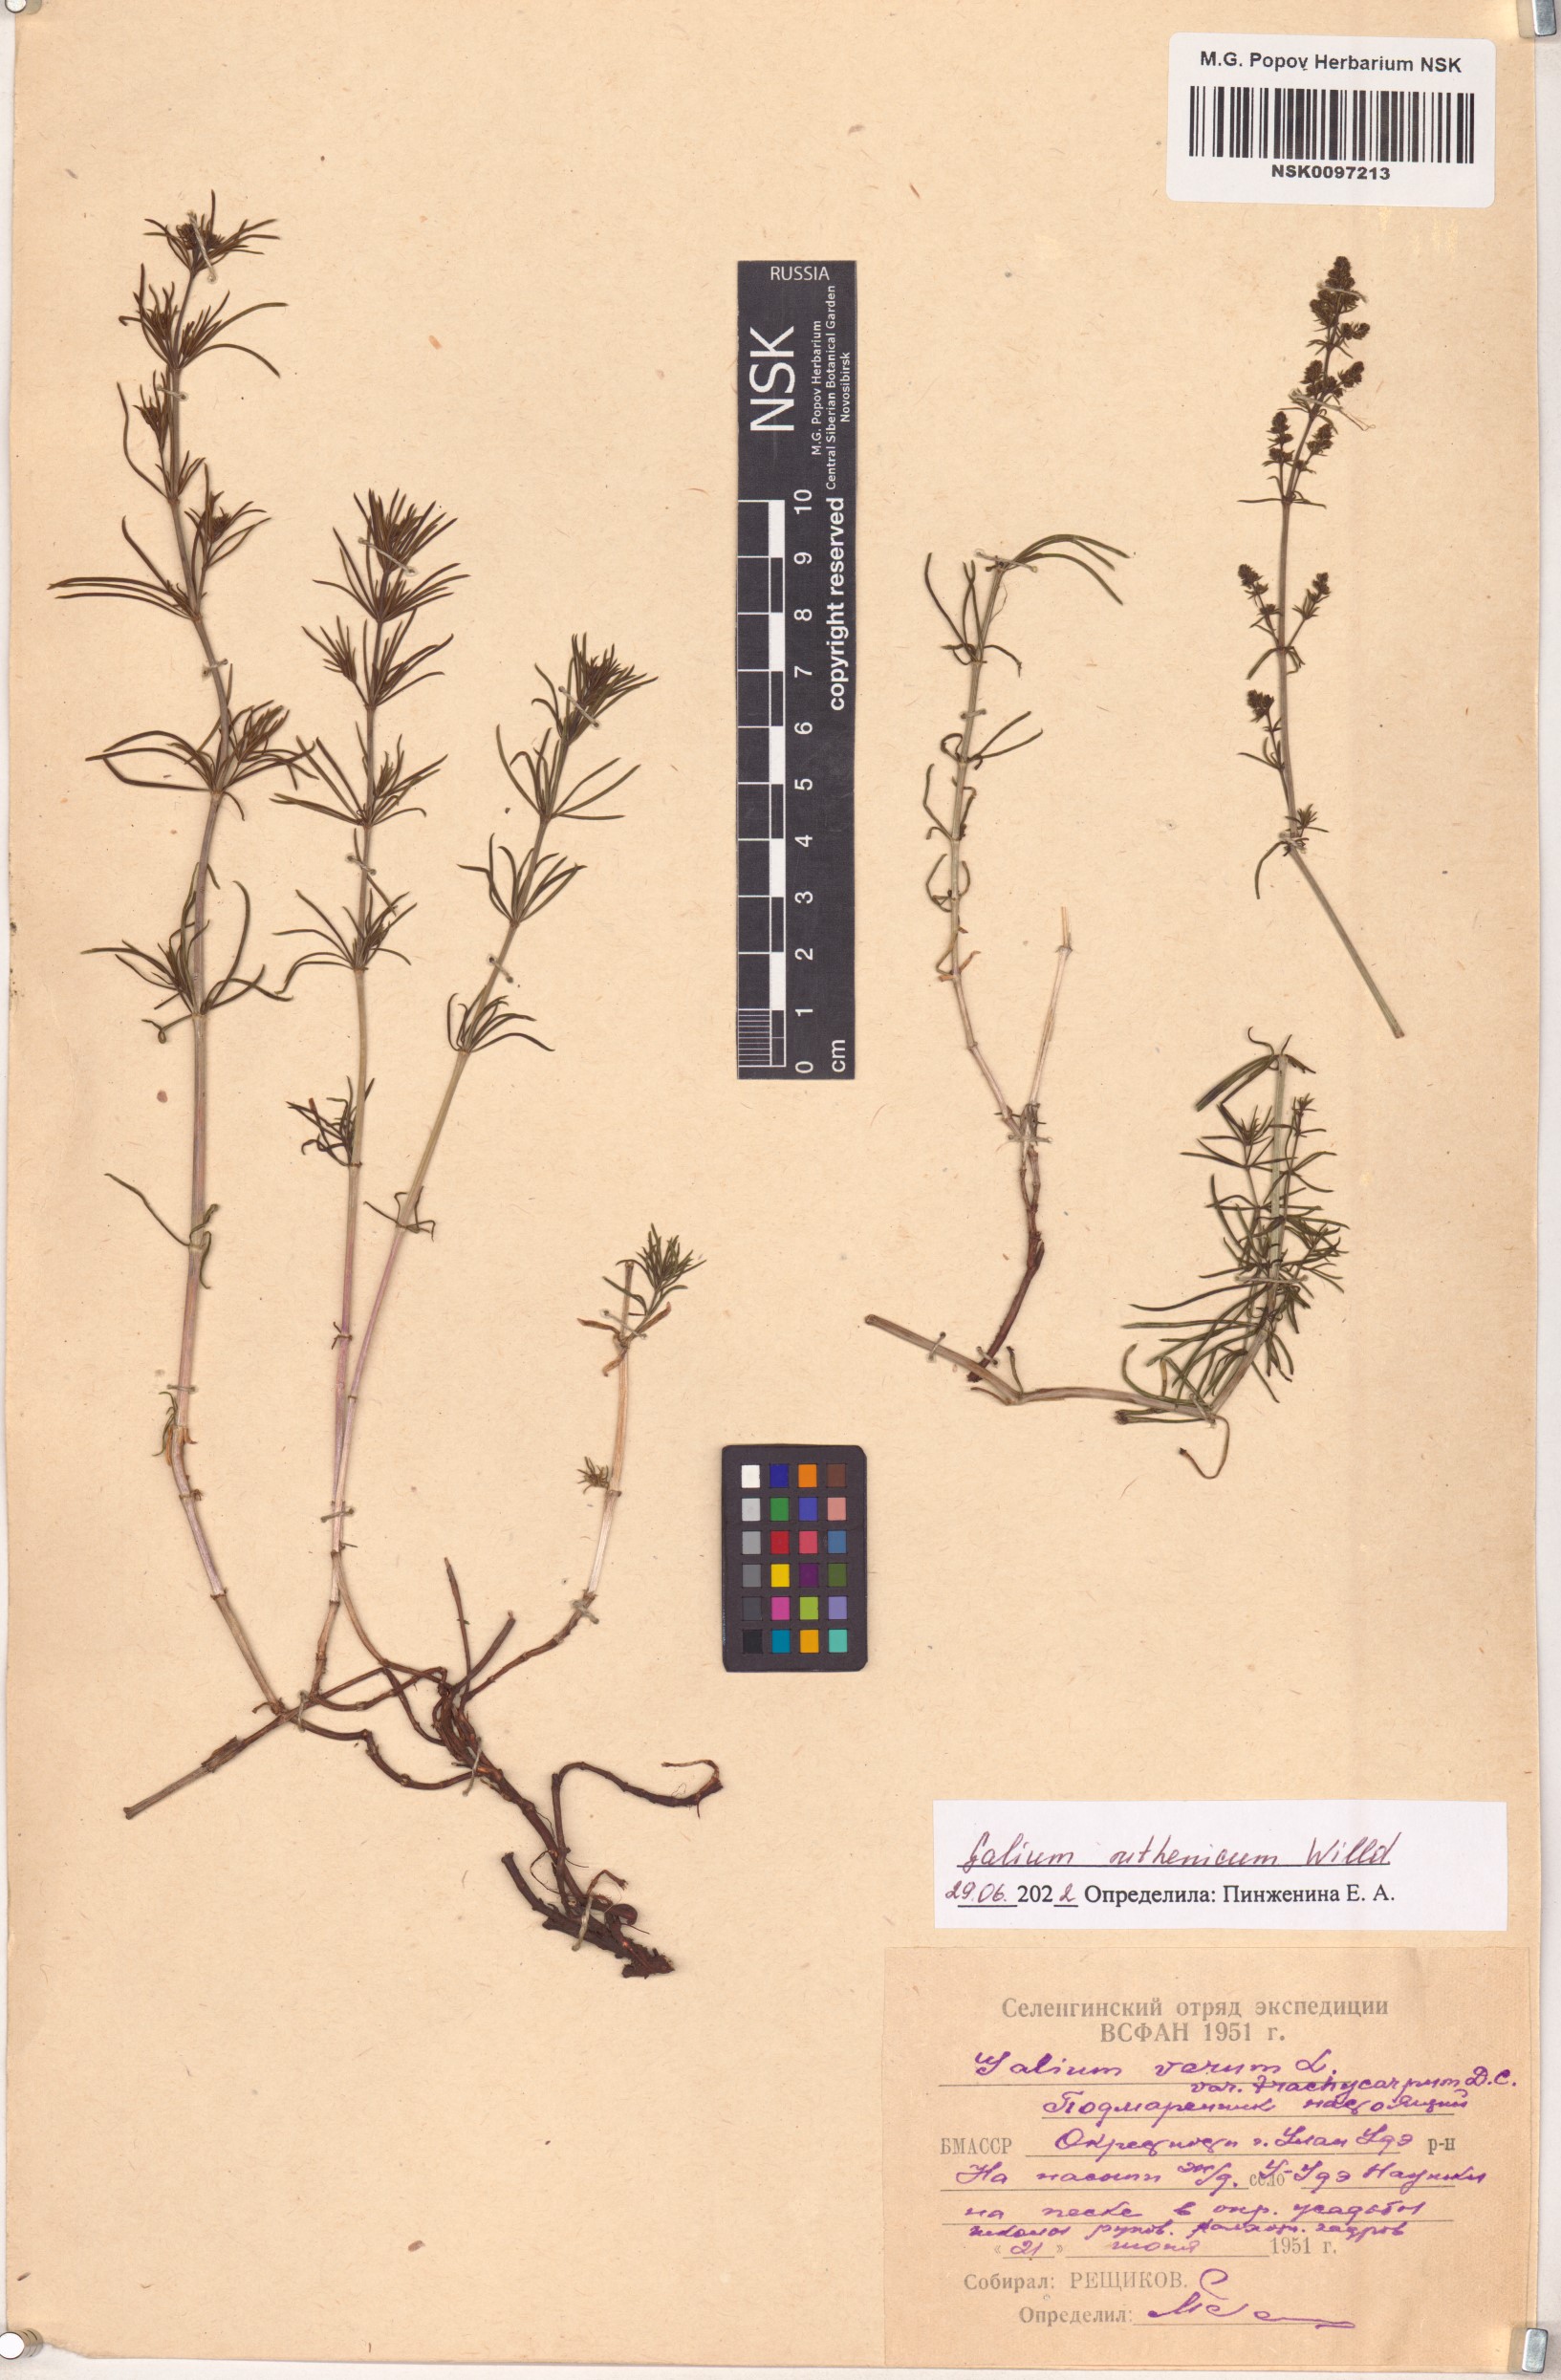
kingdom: Plantae
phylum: Tracheophyta
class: Magnoliopsida
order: Gentianales
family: Rubiaceae
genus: Galium
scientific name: Galium verum
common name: Lady's bedstraw
